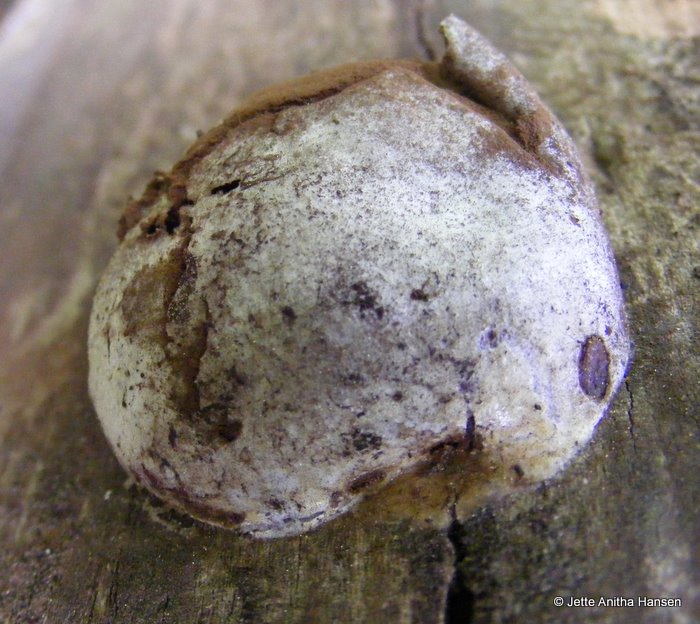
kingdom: Protozoa
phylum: Mycetozoa
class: Myxomycetes
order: Cribrariales
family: Tubiferaceae
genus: Reticularia
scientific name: Reticularia lycoperdon
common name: skinnende støvpude
